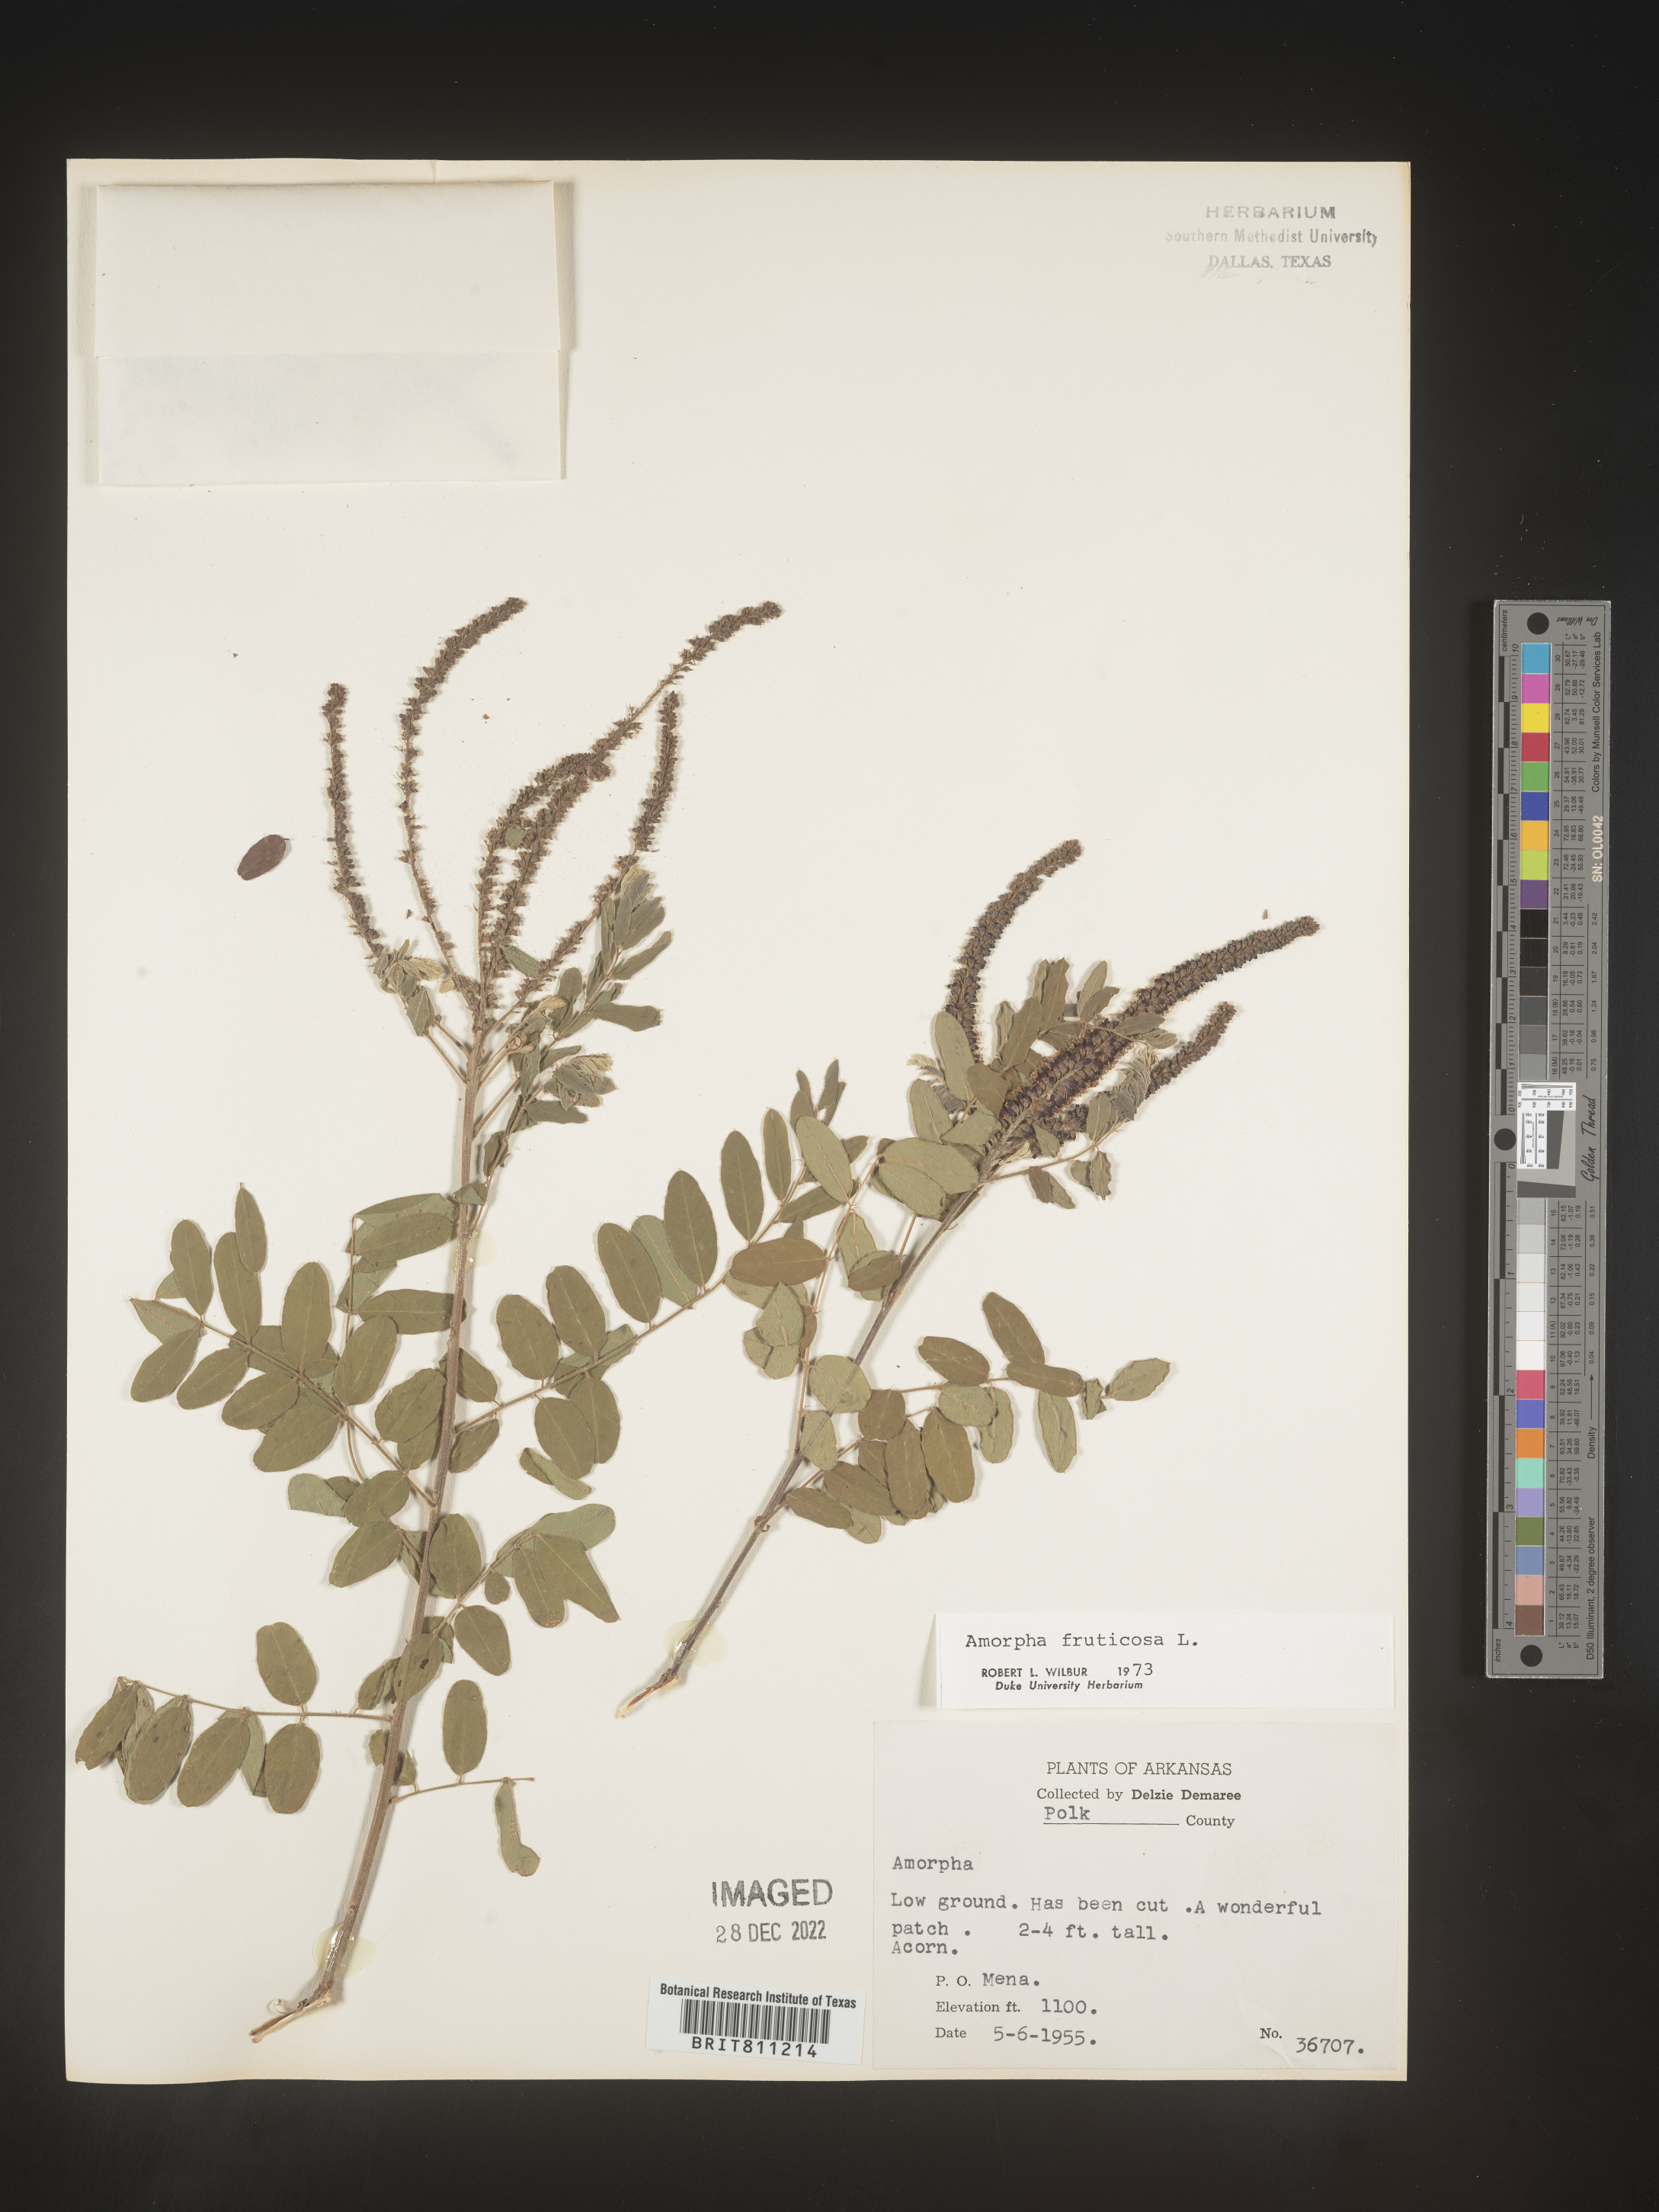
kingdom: Plantae
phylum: Tracheophyta
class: Magnoliopsida
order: Fabales
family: Fabaceae
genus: Amorpha
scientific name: Amorpha fruticosa
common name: False indigo
